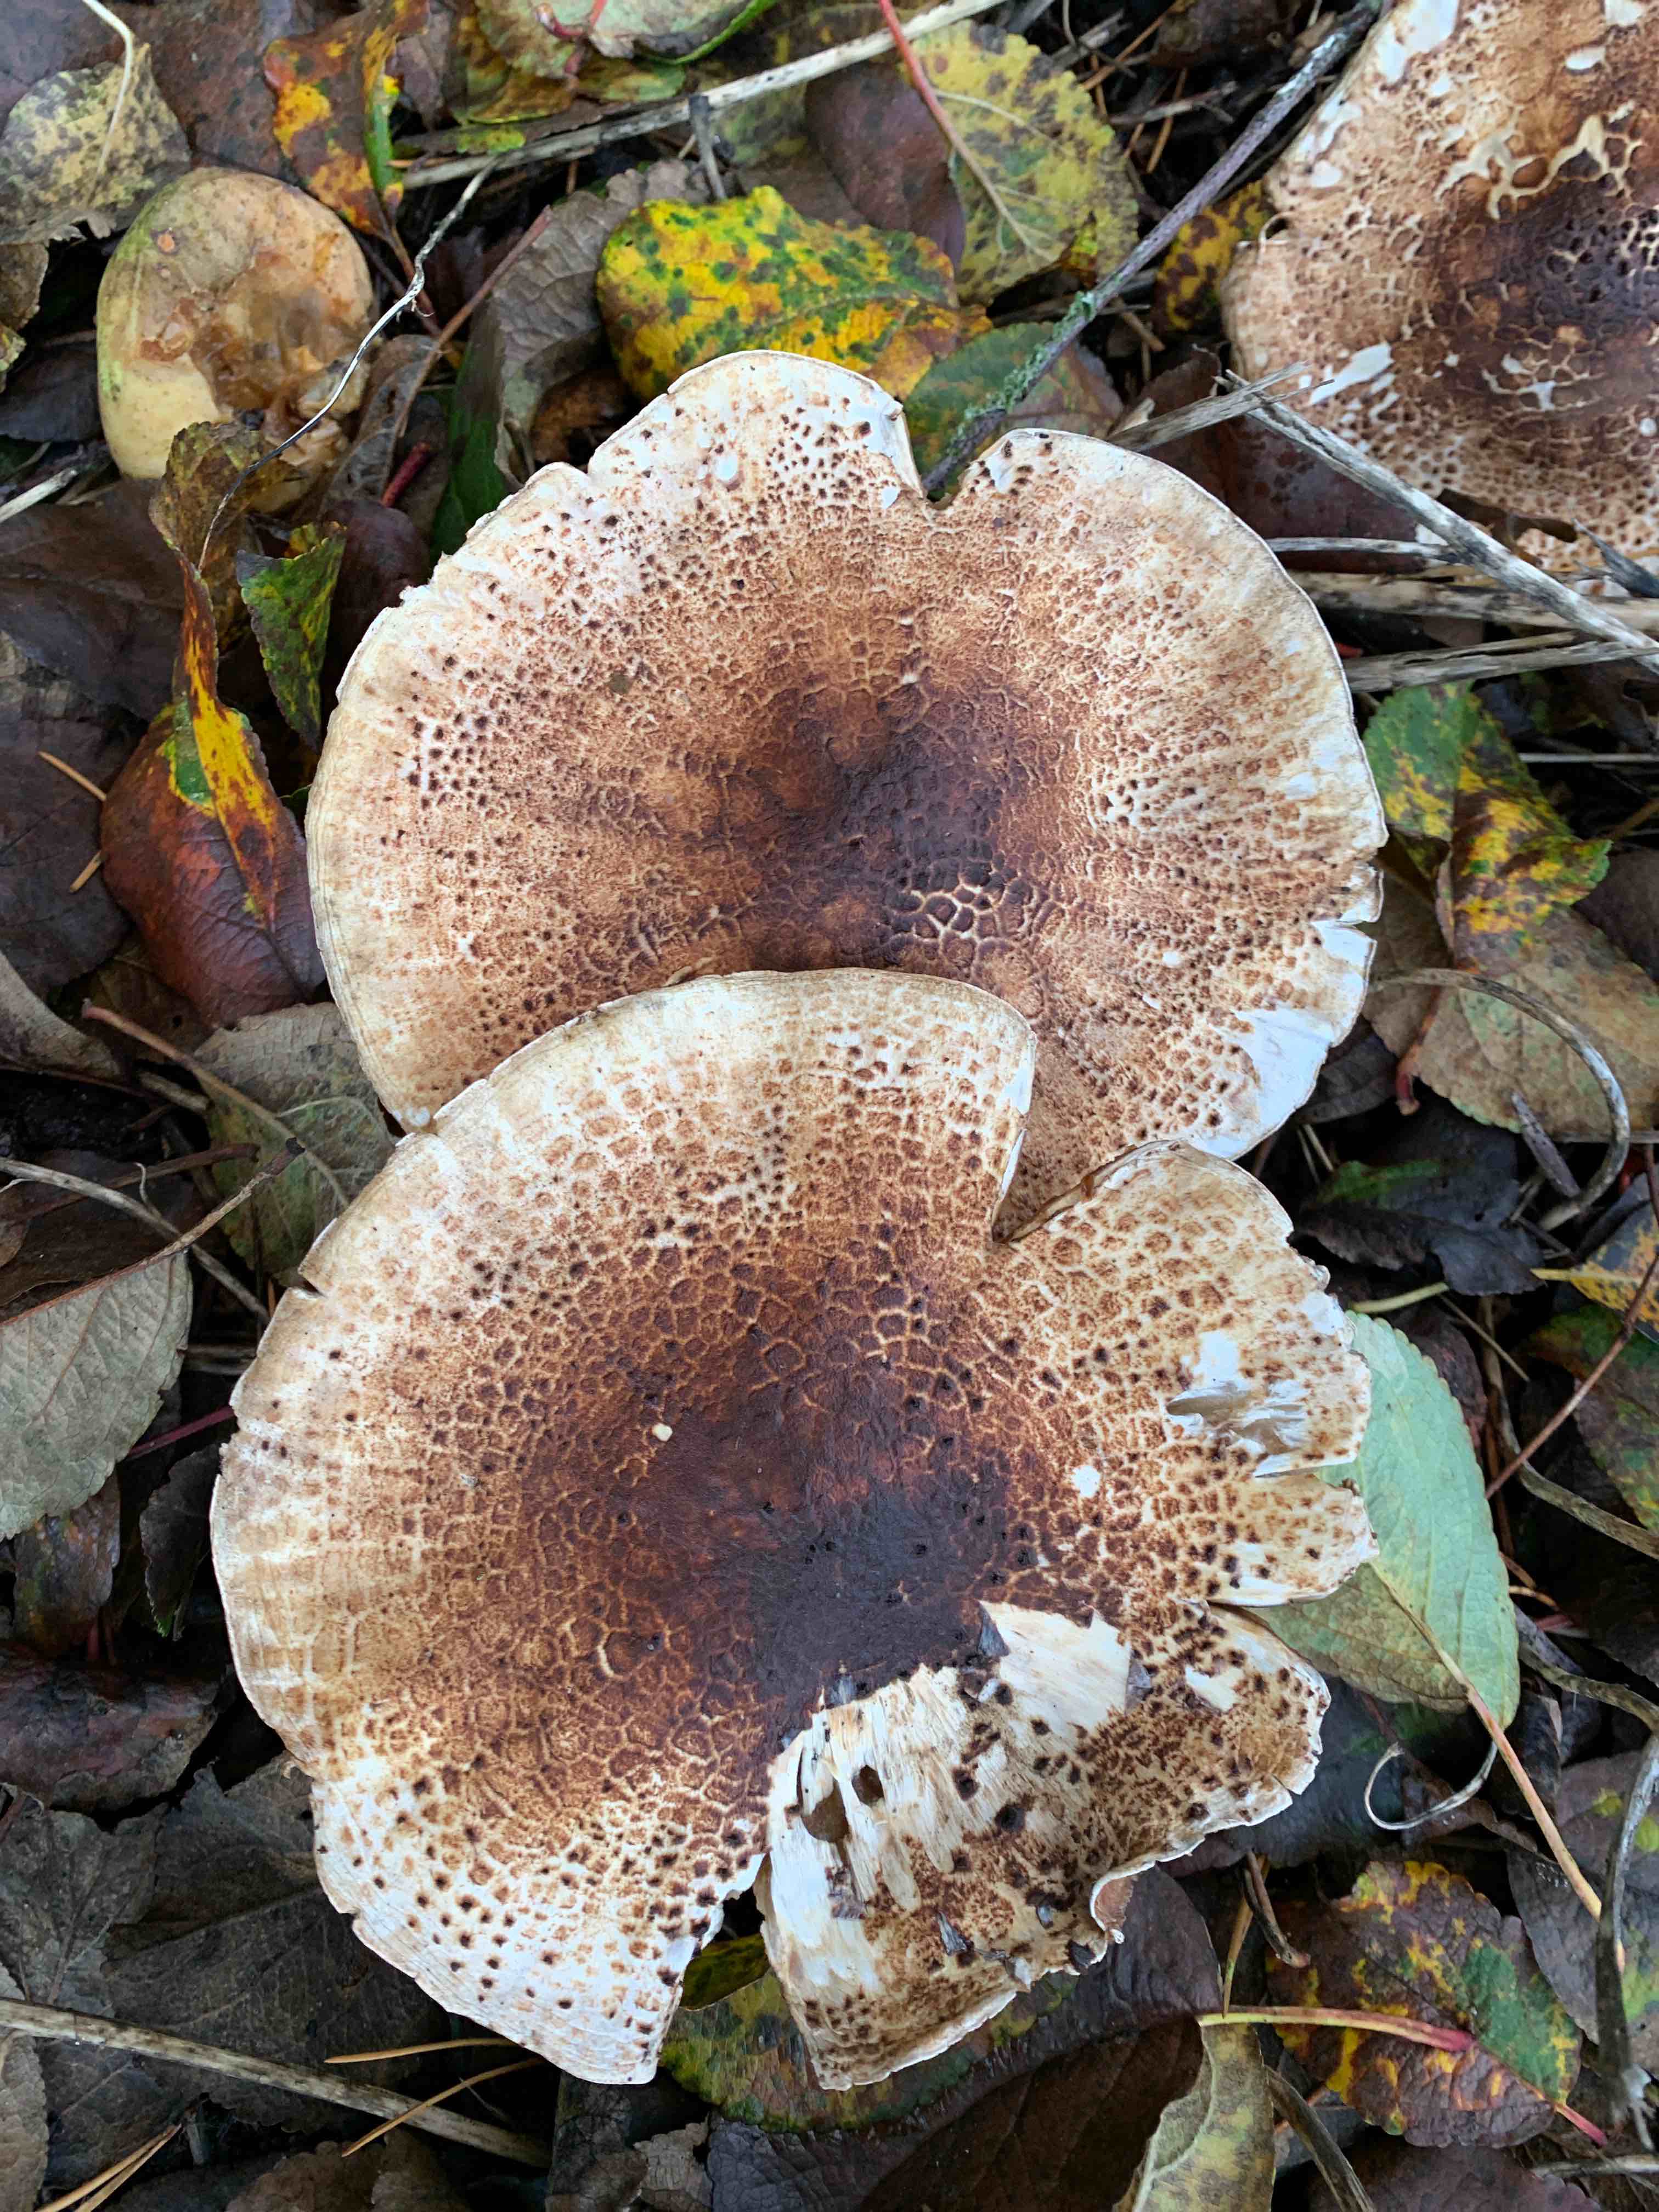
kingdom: Fungi
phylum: Basidiomycota
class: Agaricomycetes
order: Agaricales
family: Agaricaceae
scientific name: Agaricaceae
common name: champignonfamilien
